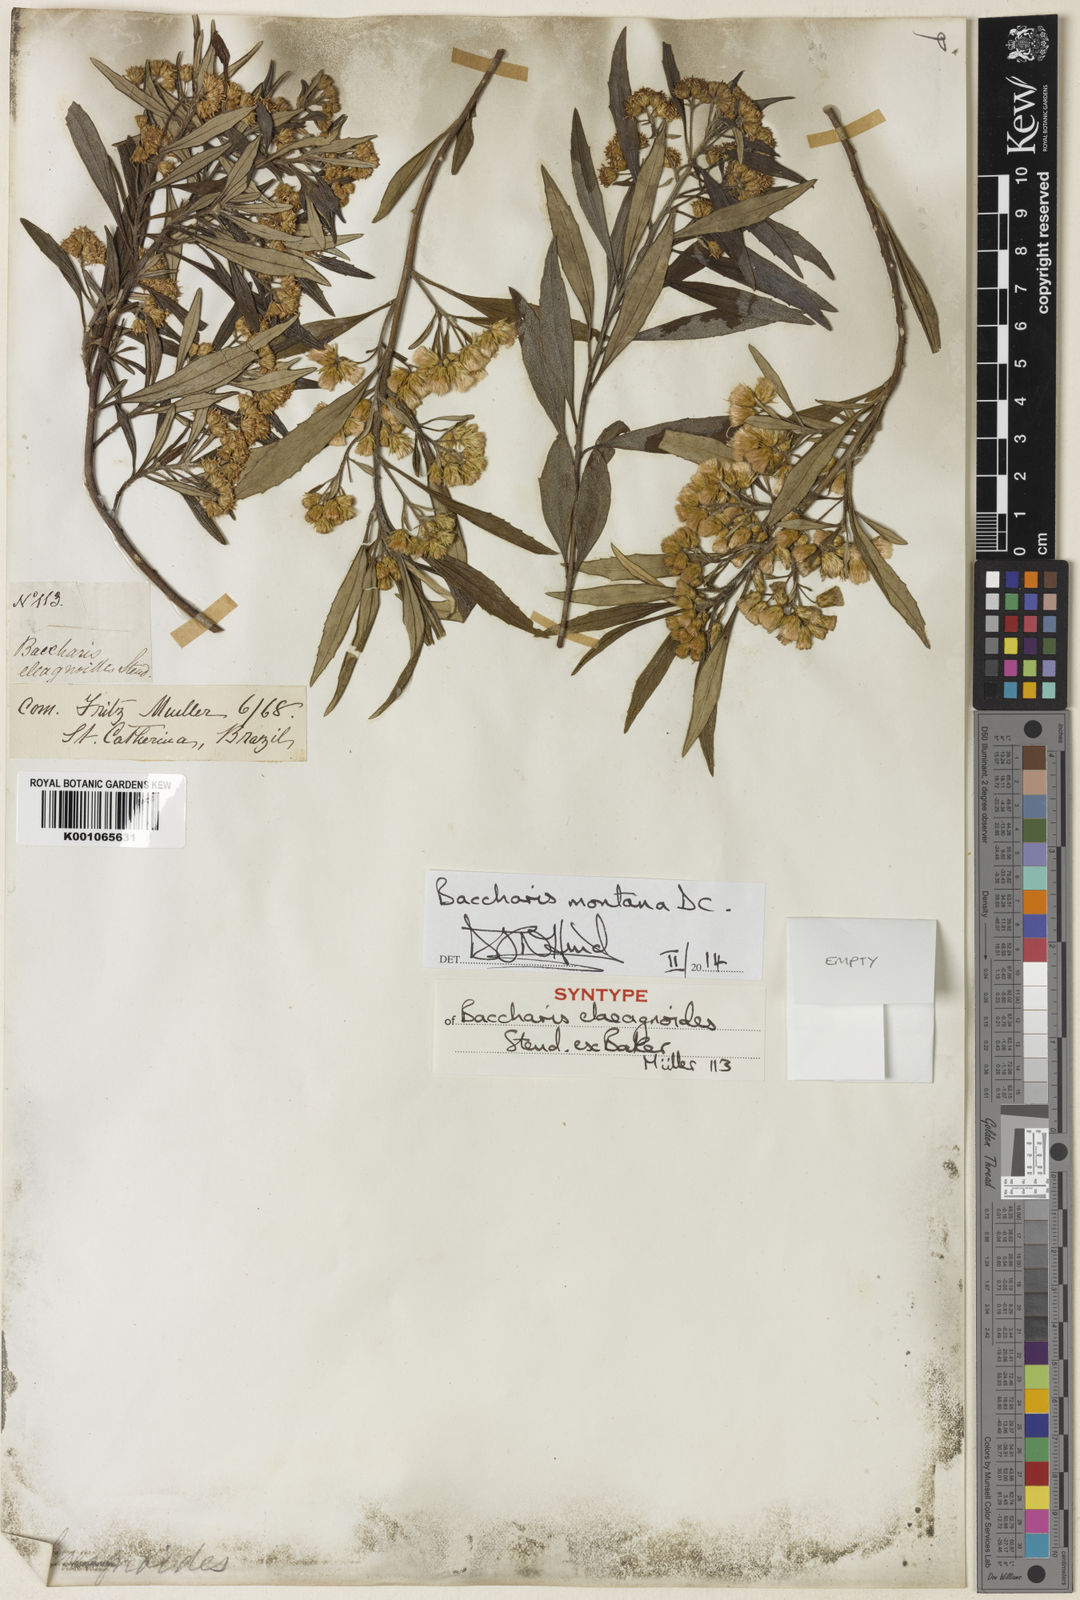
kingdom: Plantae
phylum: Tracheophyta
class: Magnoliopsida
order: Asterales
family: Asteraceae
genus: Baccharis
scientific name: Baccharis
